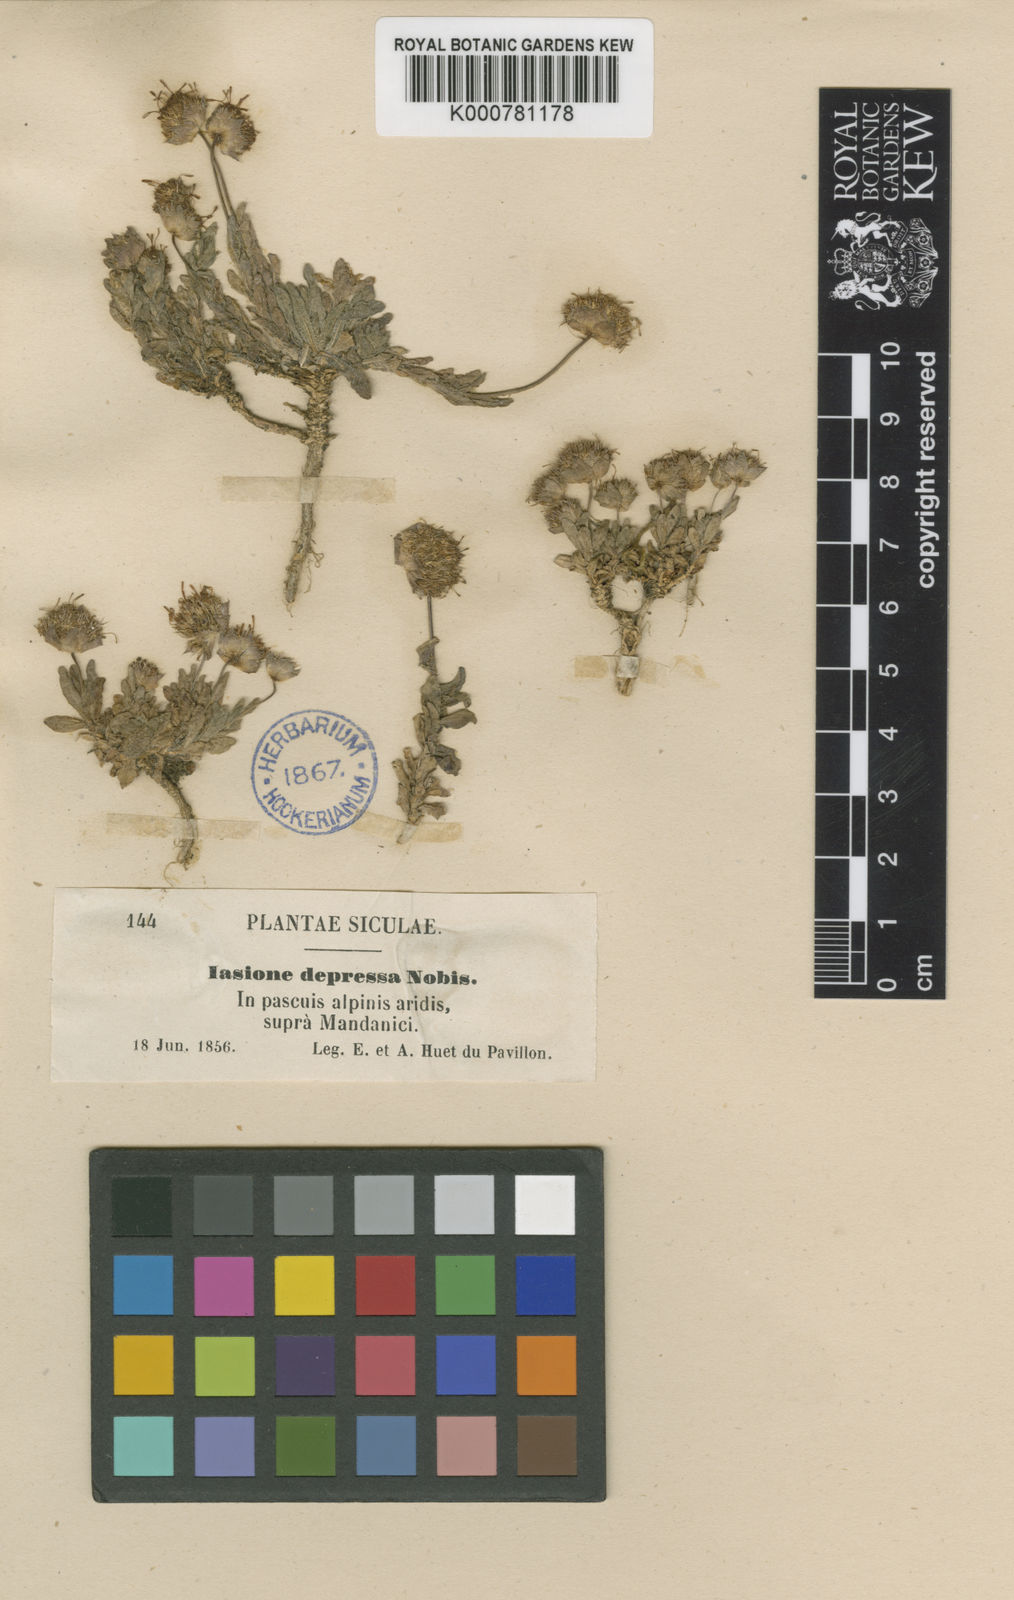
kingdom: Plantae
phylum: Tracheophyta
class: Magnoliopsida
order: Asterales
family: Campanulaceae
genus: Jasione
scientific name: Jasione
